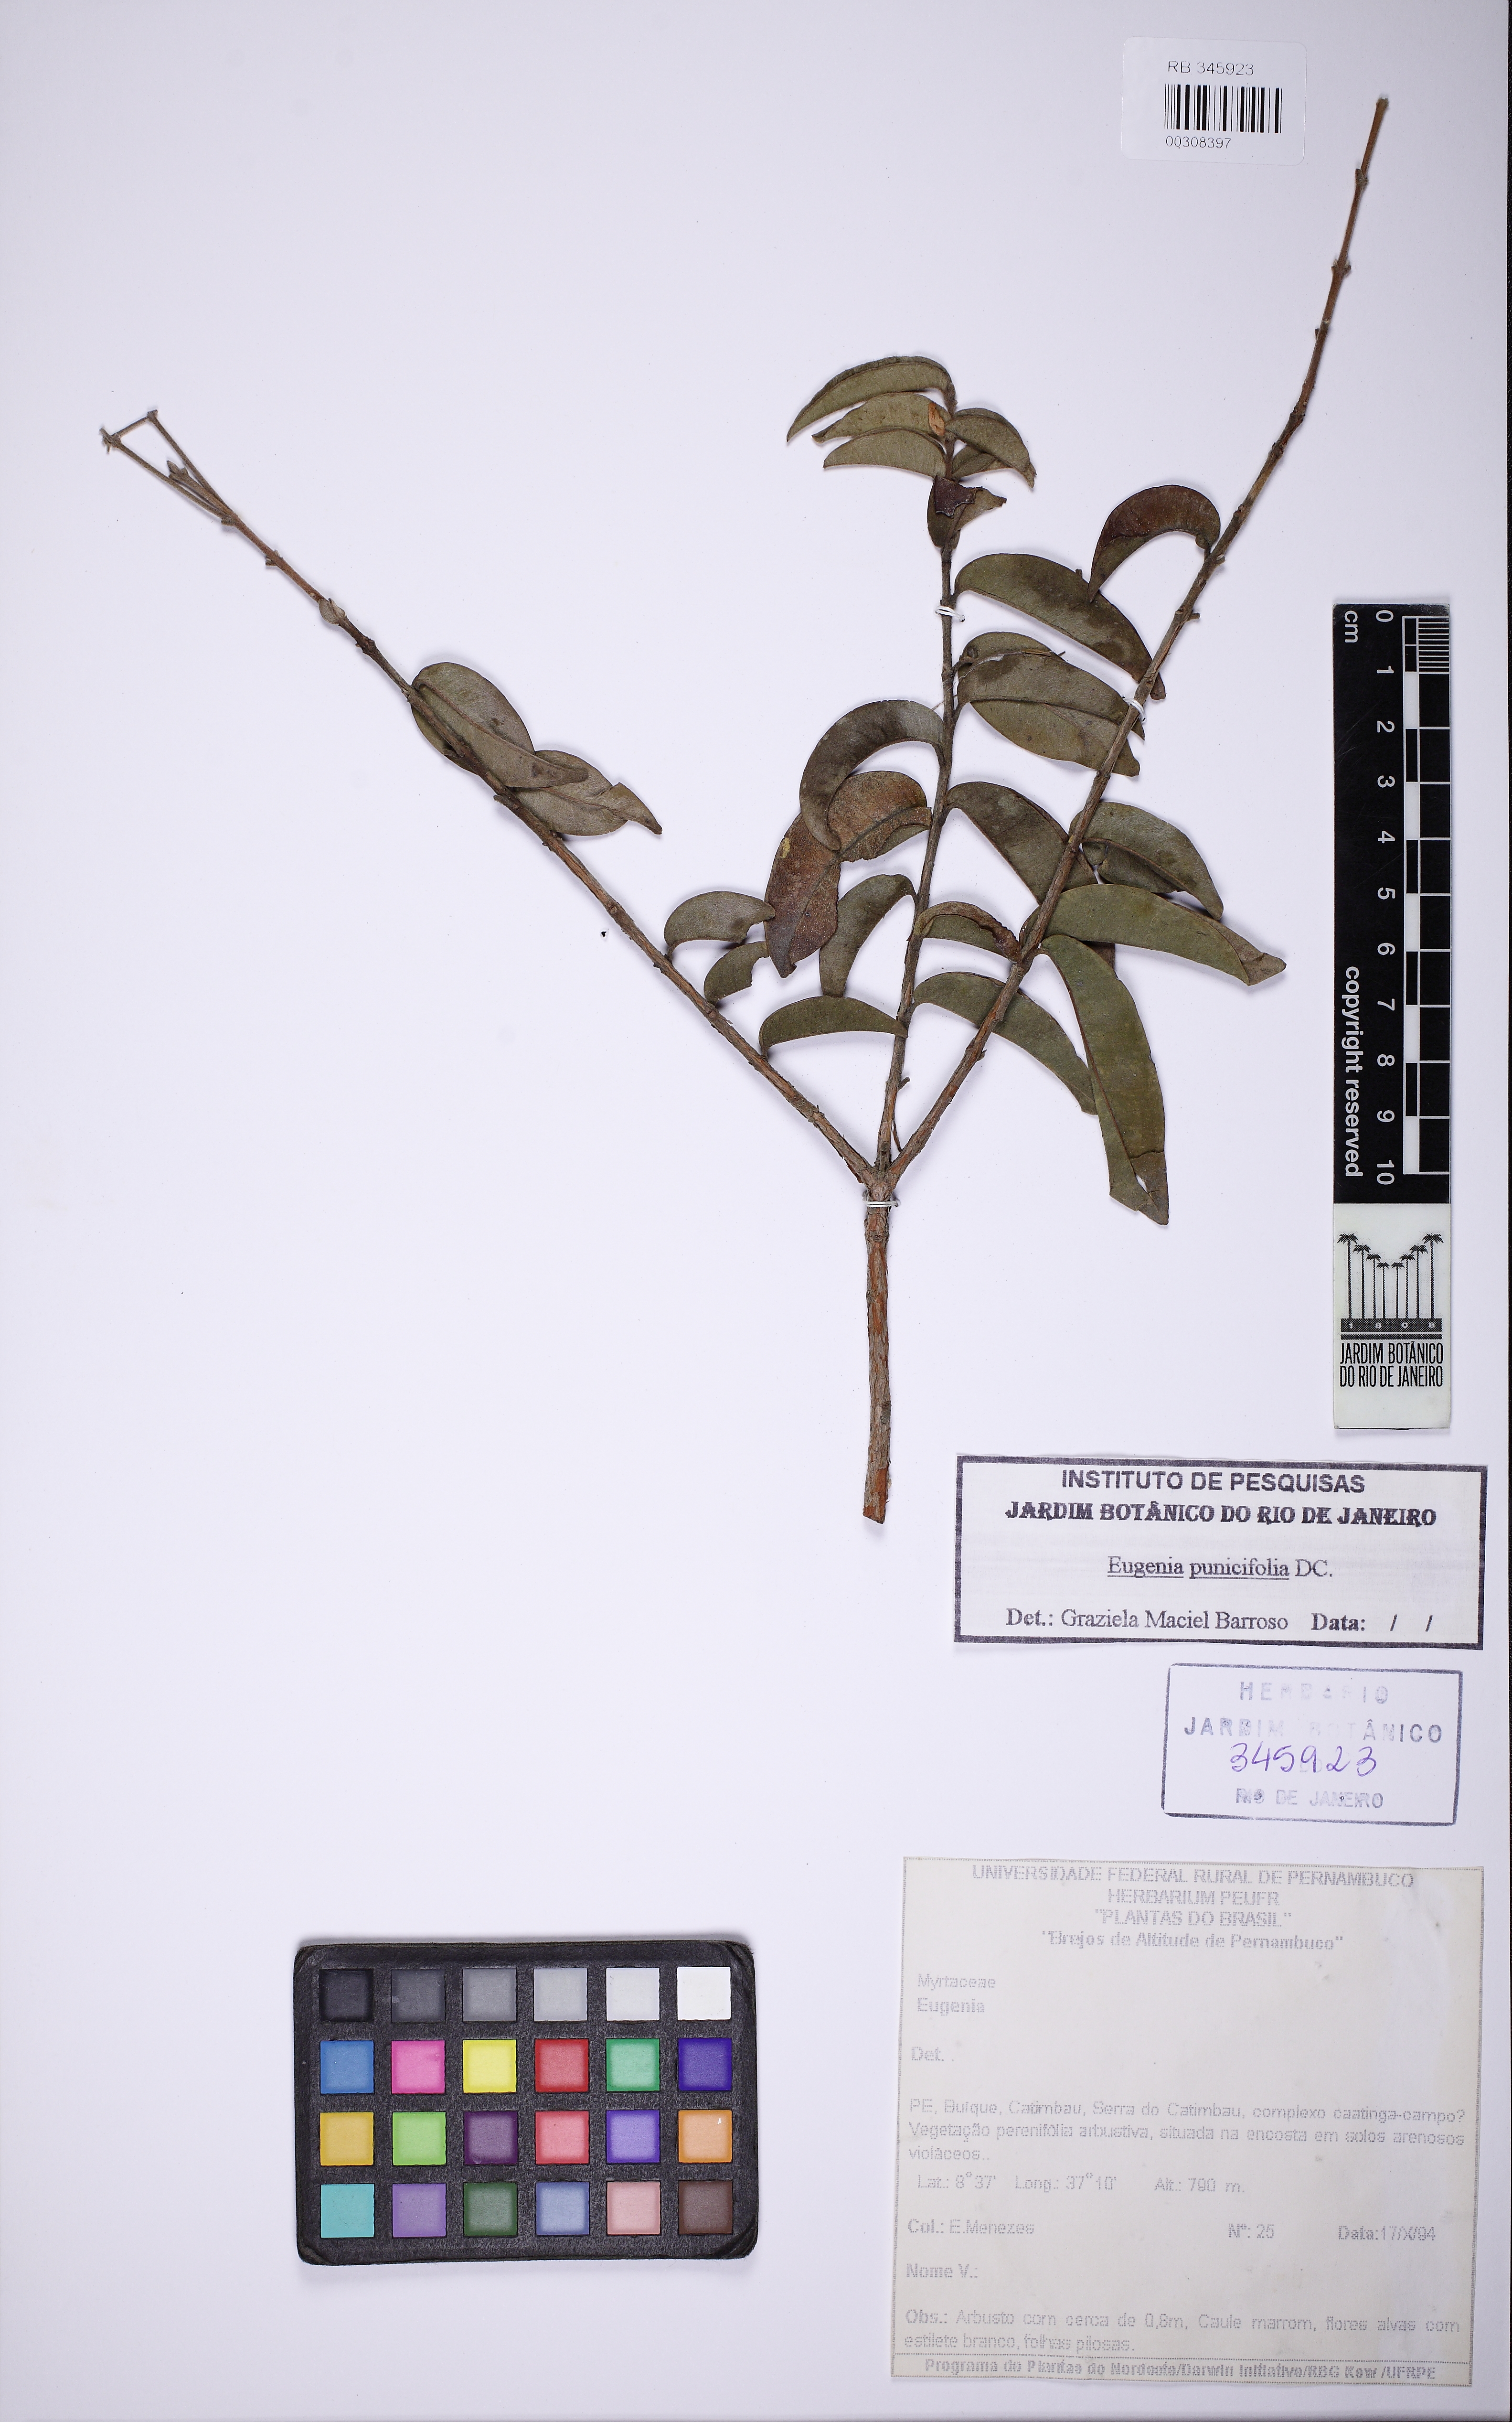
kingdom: Plantae
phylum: Tracheophyta
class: Magnoliopsida
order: Myrtales
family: Myrtaceae
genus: Eugenia
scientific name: Eugenia punicifolia
